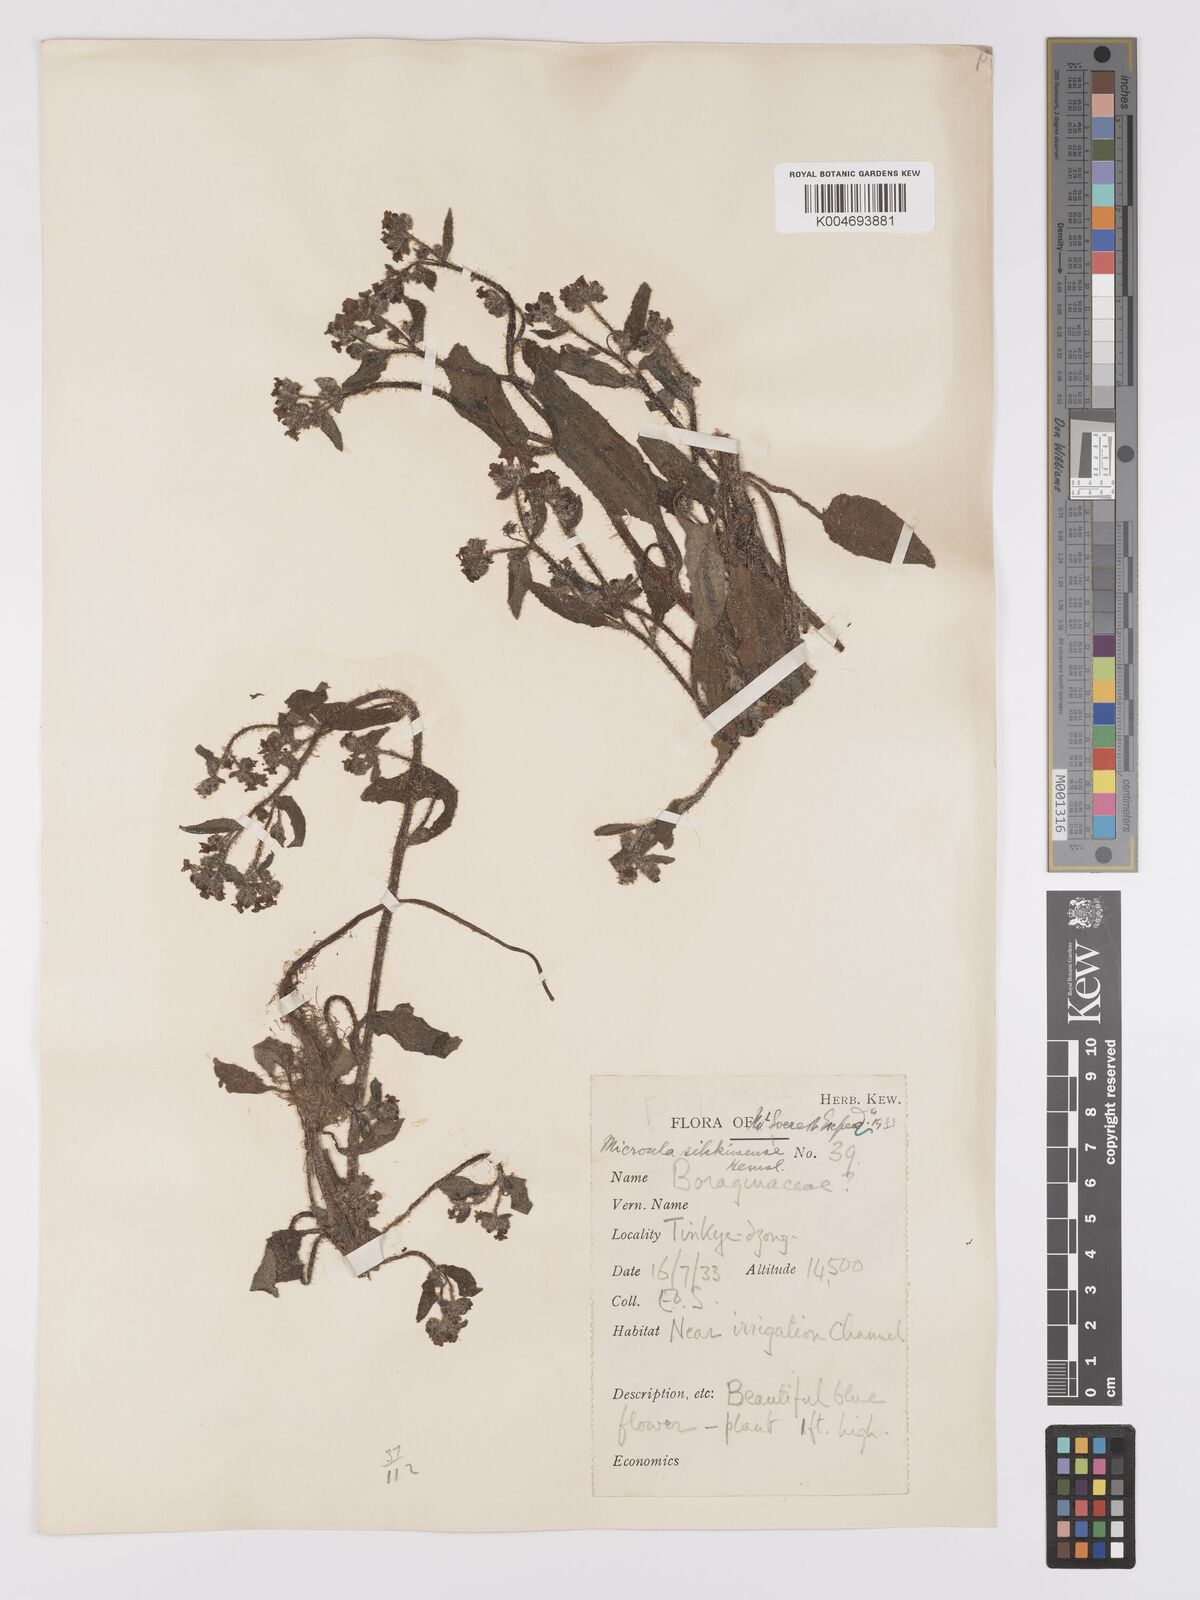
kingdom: Plantae
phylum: Tracheophyta
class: Magnoliopsida
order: Boraginales
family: Boraginaceae
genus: Microula
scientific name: Microula sikkimensis
